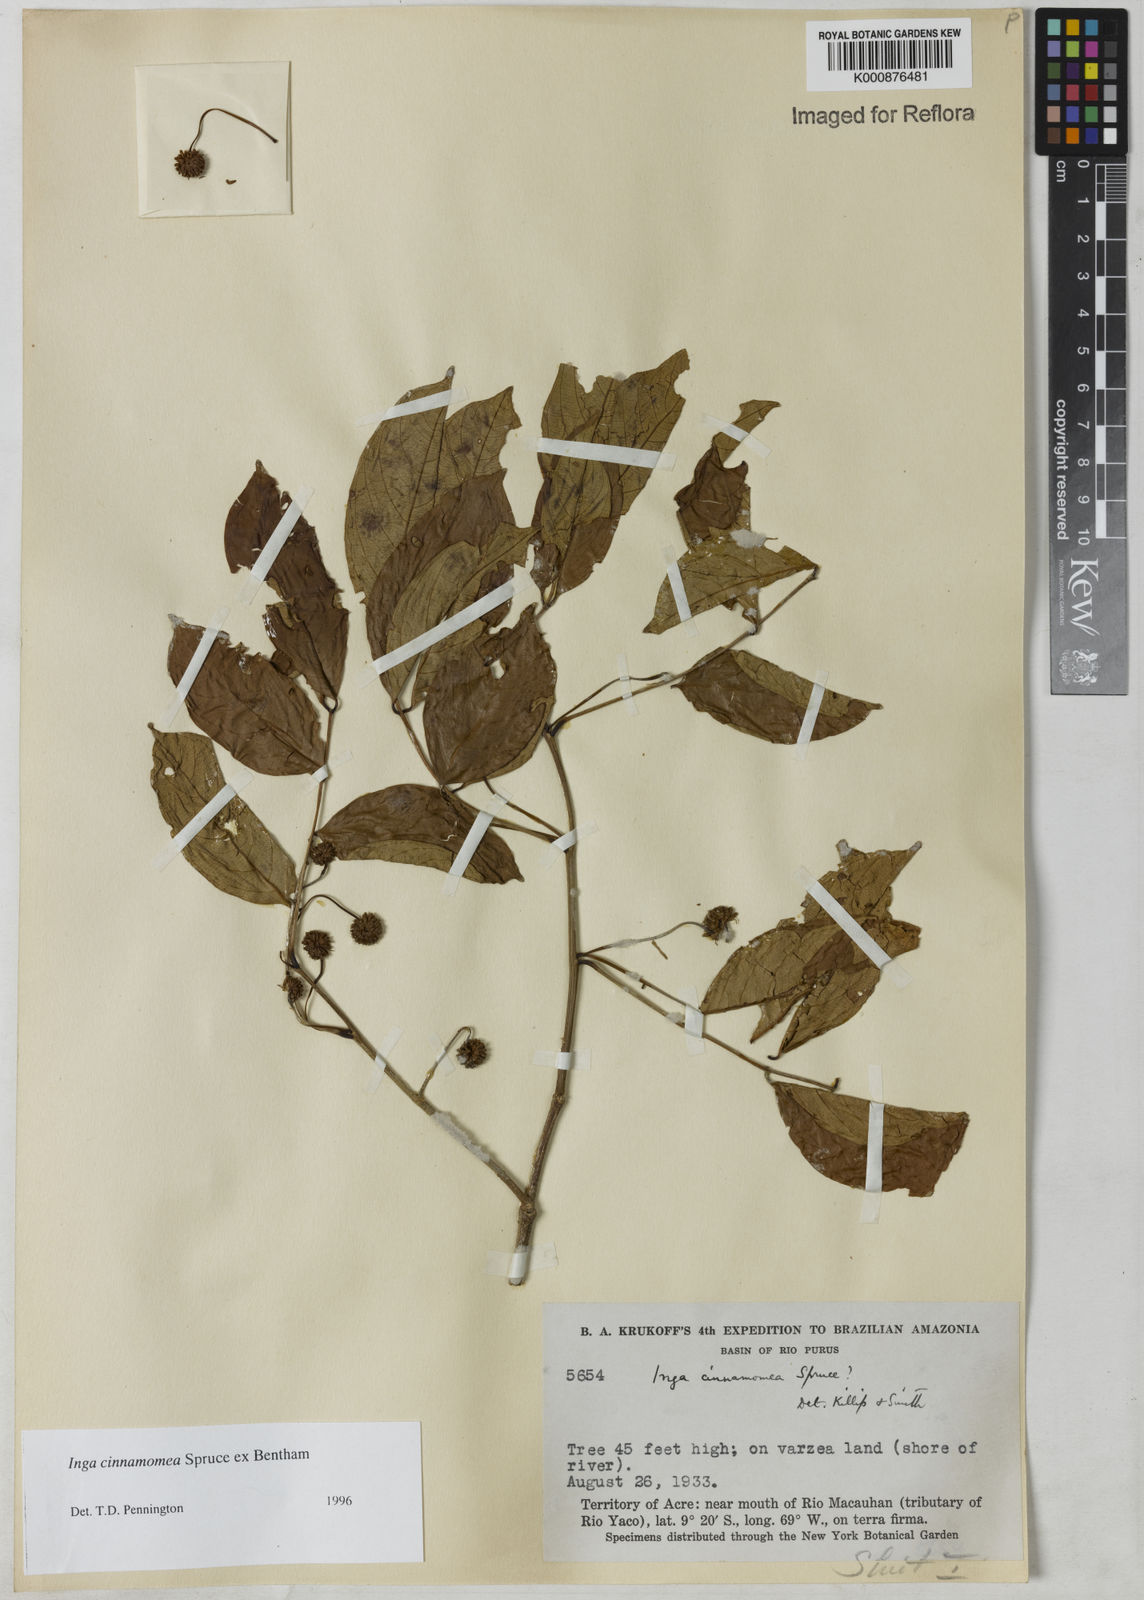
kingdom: Plantae
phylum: Tracheophyta
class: Magnoliopsida
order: Fabales
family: Fabaceae
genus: Inga
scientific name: Inga cinnamomea
